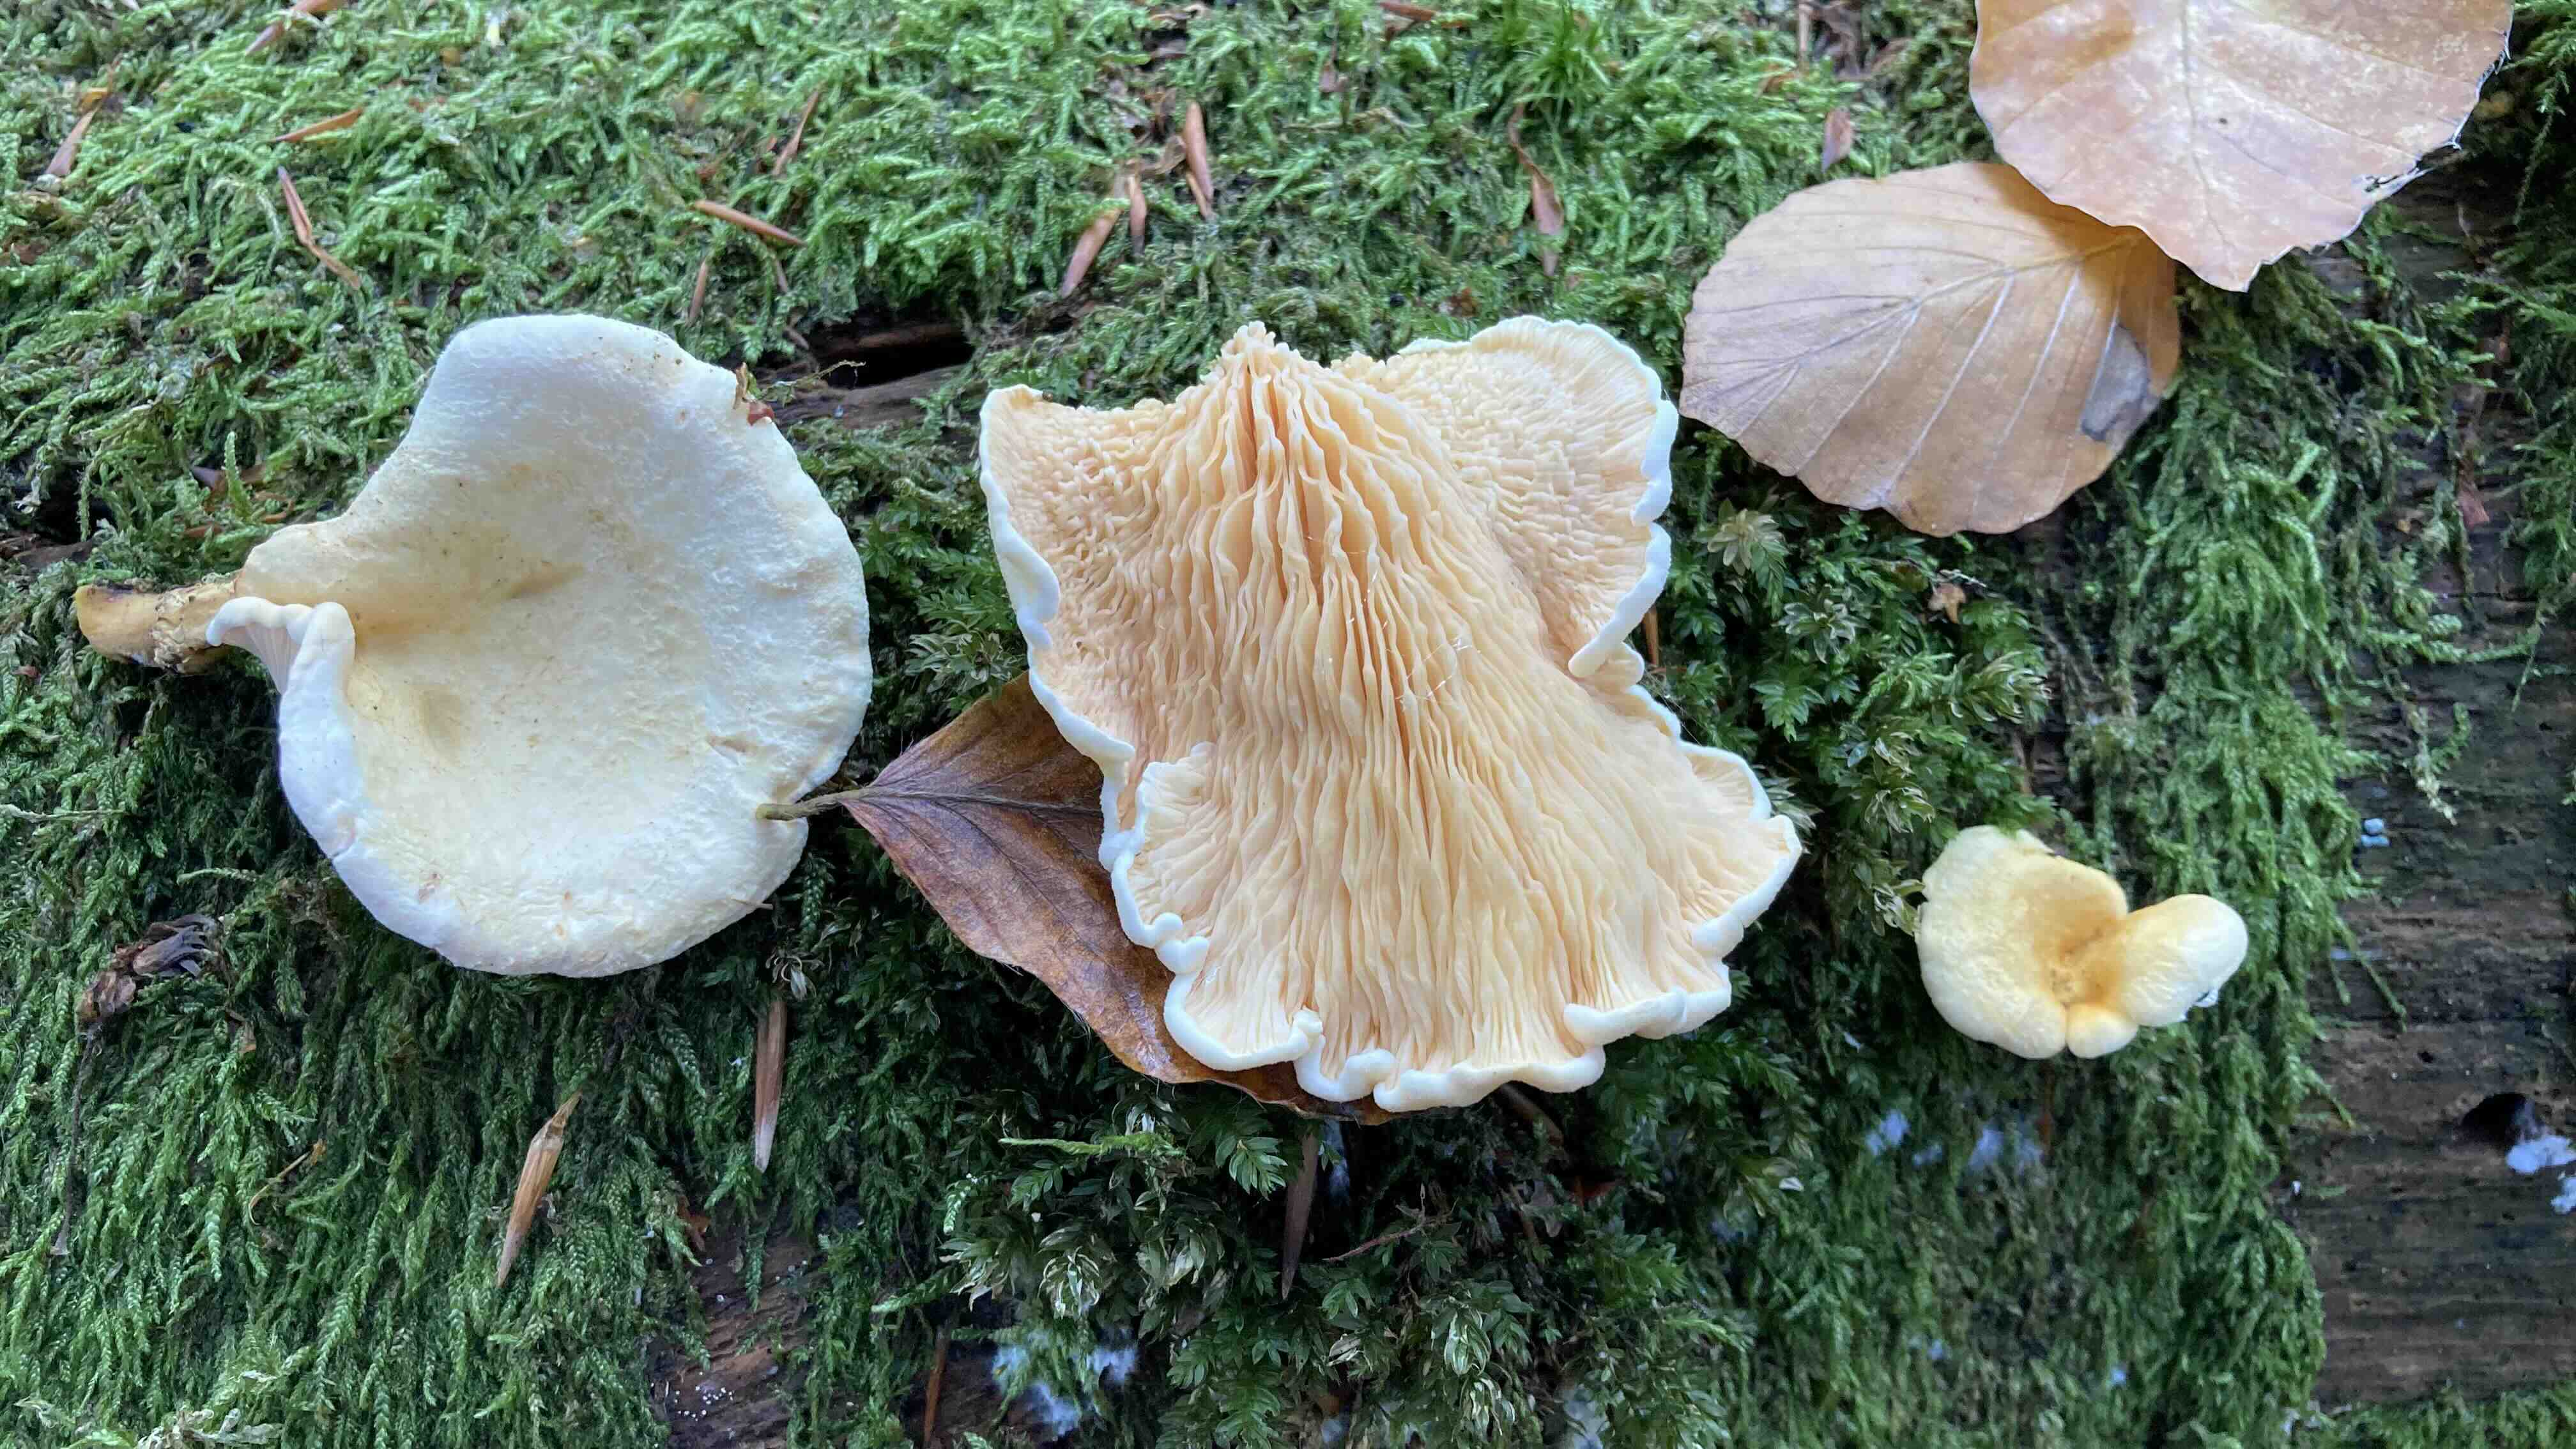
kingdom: Fungi
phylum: Basidiomycota
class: Agaricomycetes
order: Boletales
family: Hygrophoropsidaceae
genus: Hygrophoropsis
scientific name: Hygrophoropsis aurantiaca
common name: almindelig orangekantarel
